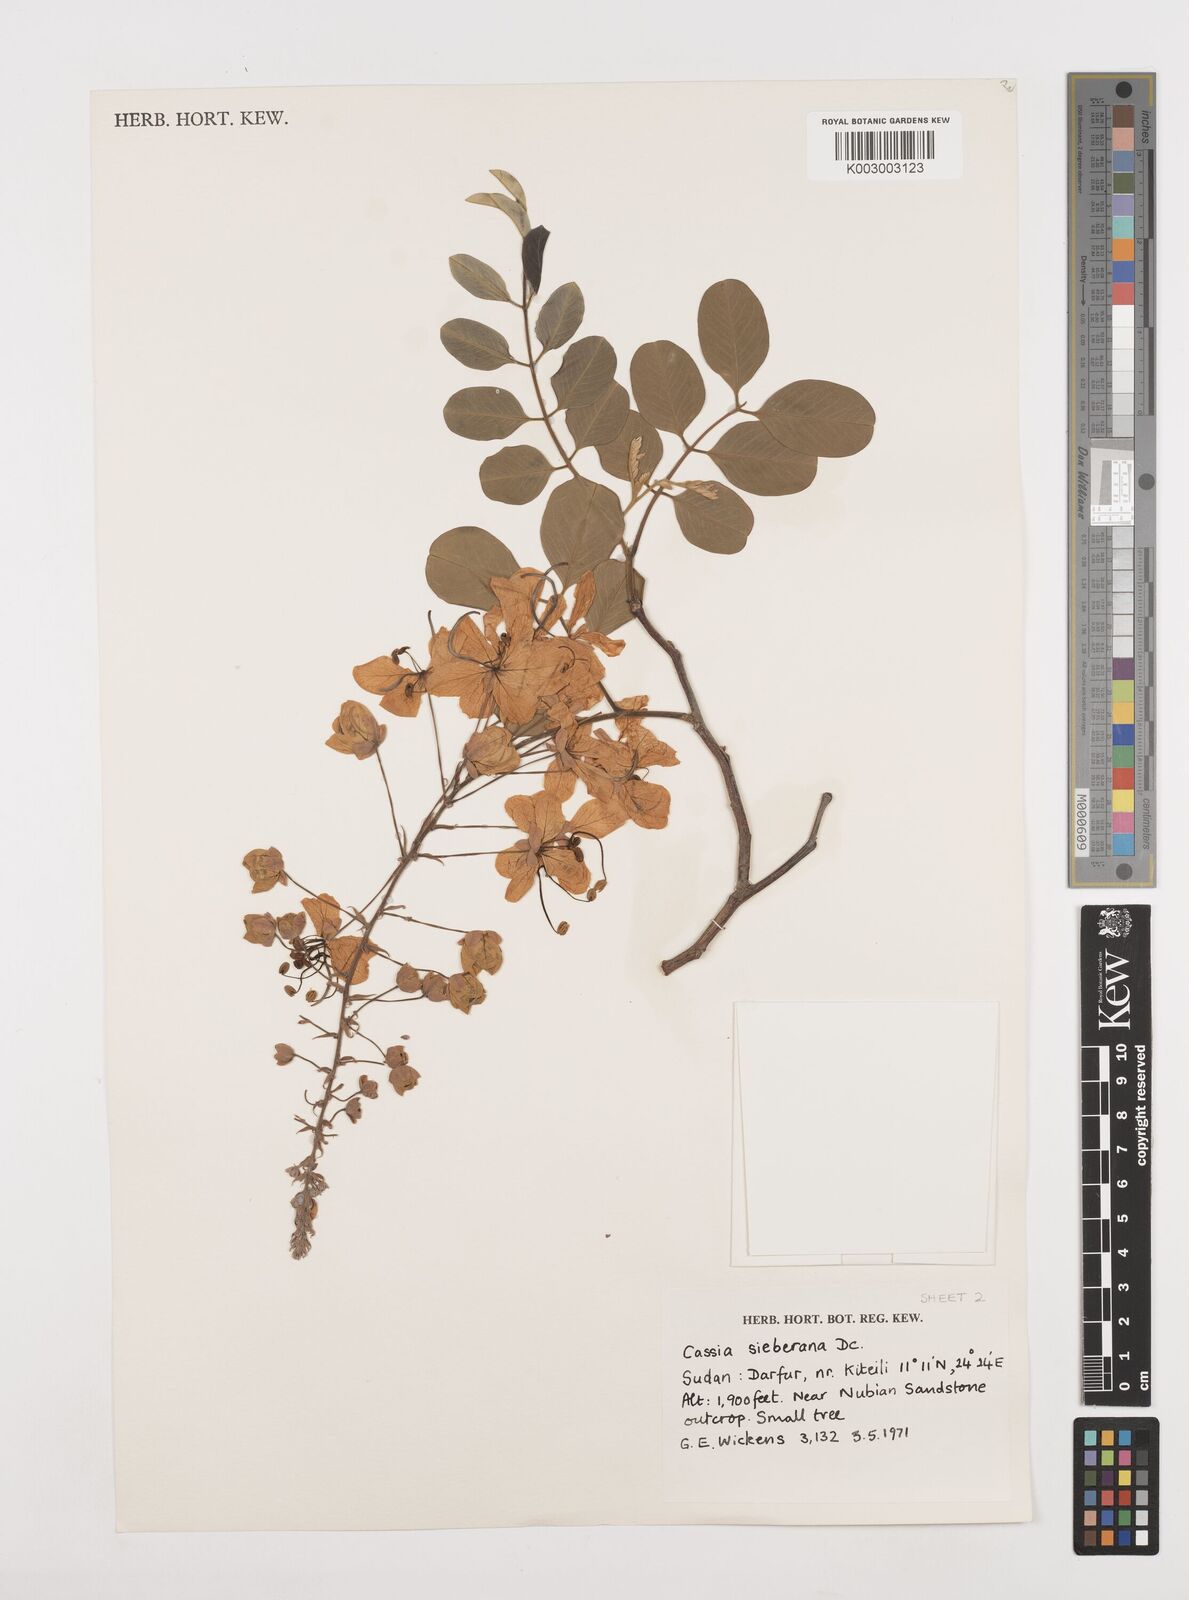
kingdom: Plantae
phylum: Tracheophyta
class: Magnoliopsida
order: Fabales
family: Fabaceae
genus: Cassia
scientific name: Cassia sieberiana
